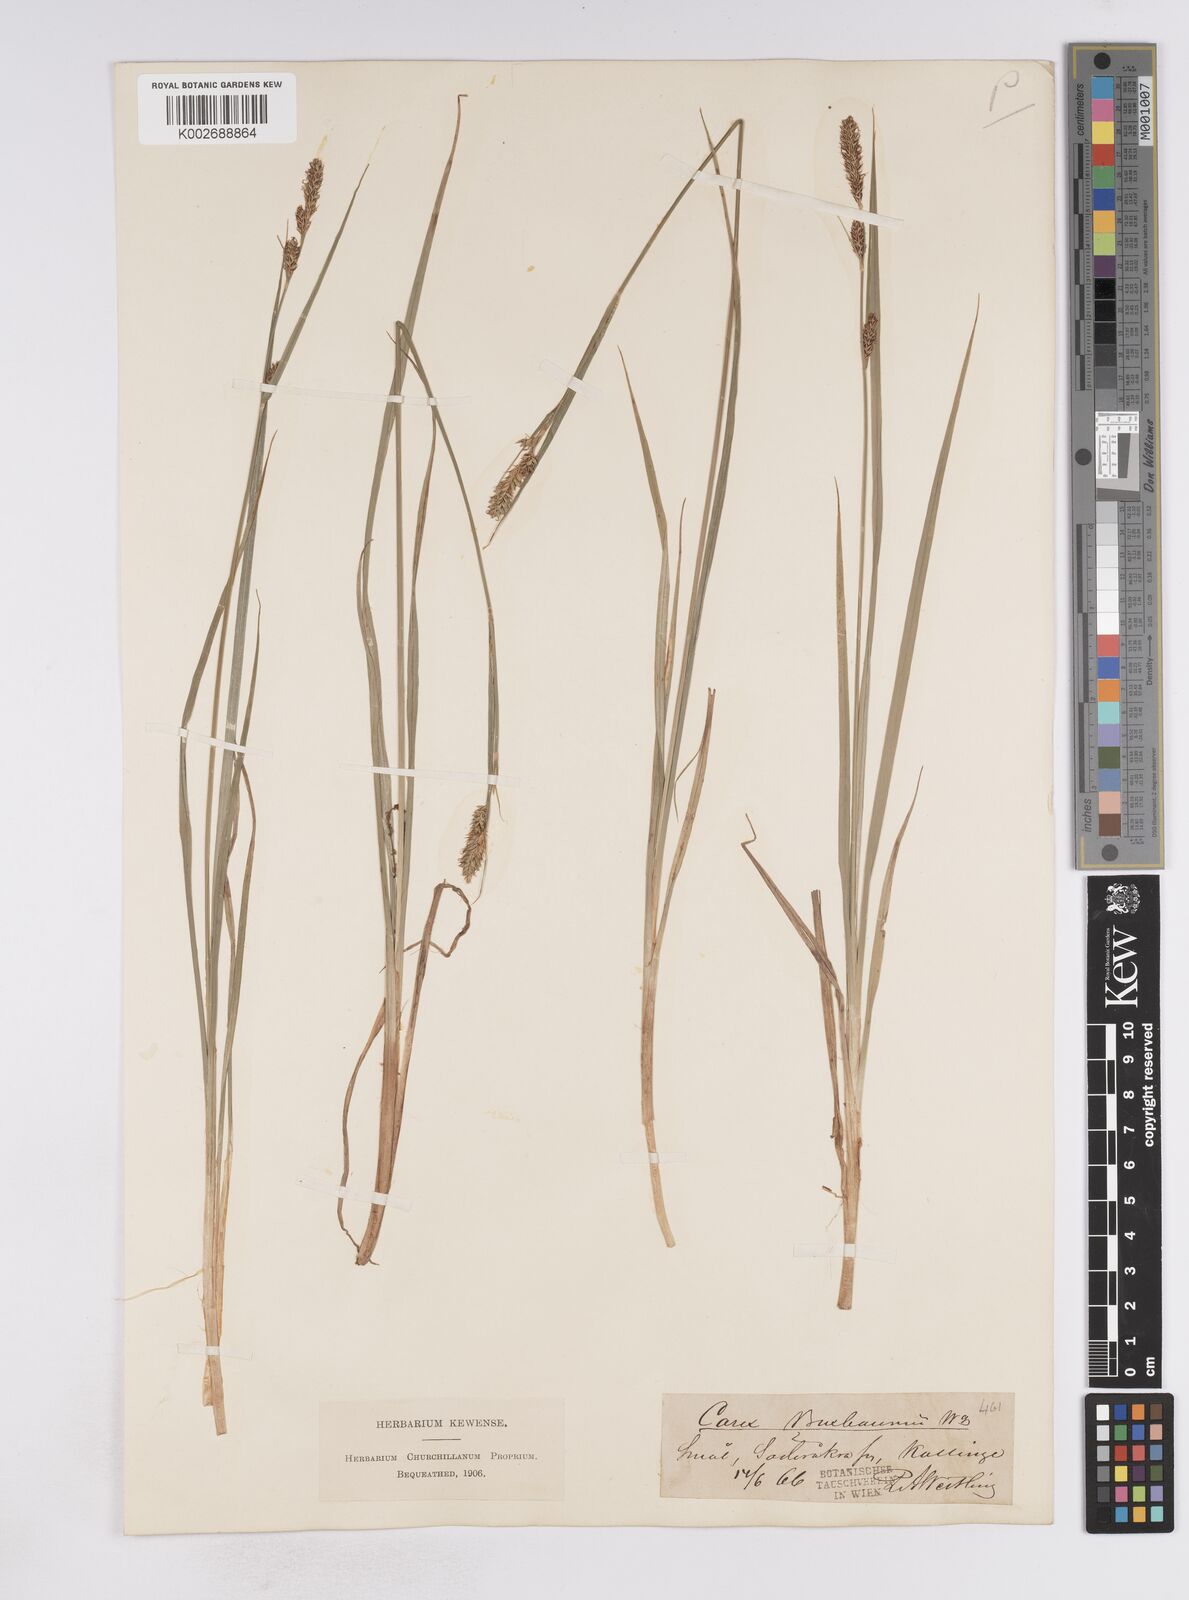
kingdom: Plantae
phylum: Tracheophyta
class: Liliopsida
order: Poales
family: Cyperaceae
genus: Carex
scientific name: Carex buxbaumii
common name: Club sedge
